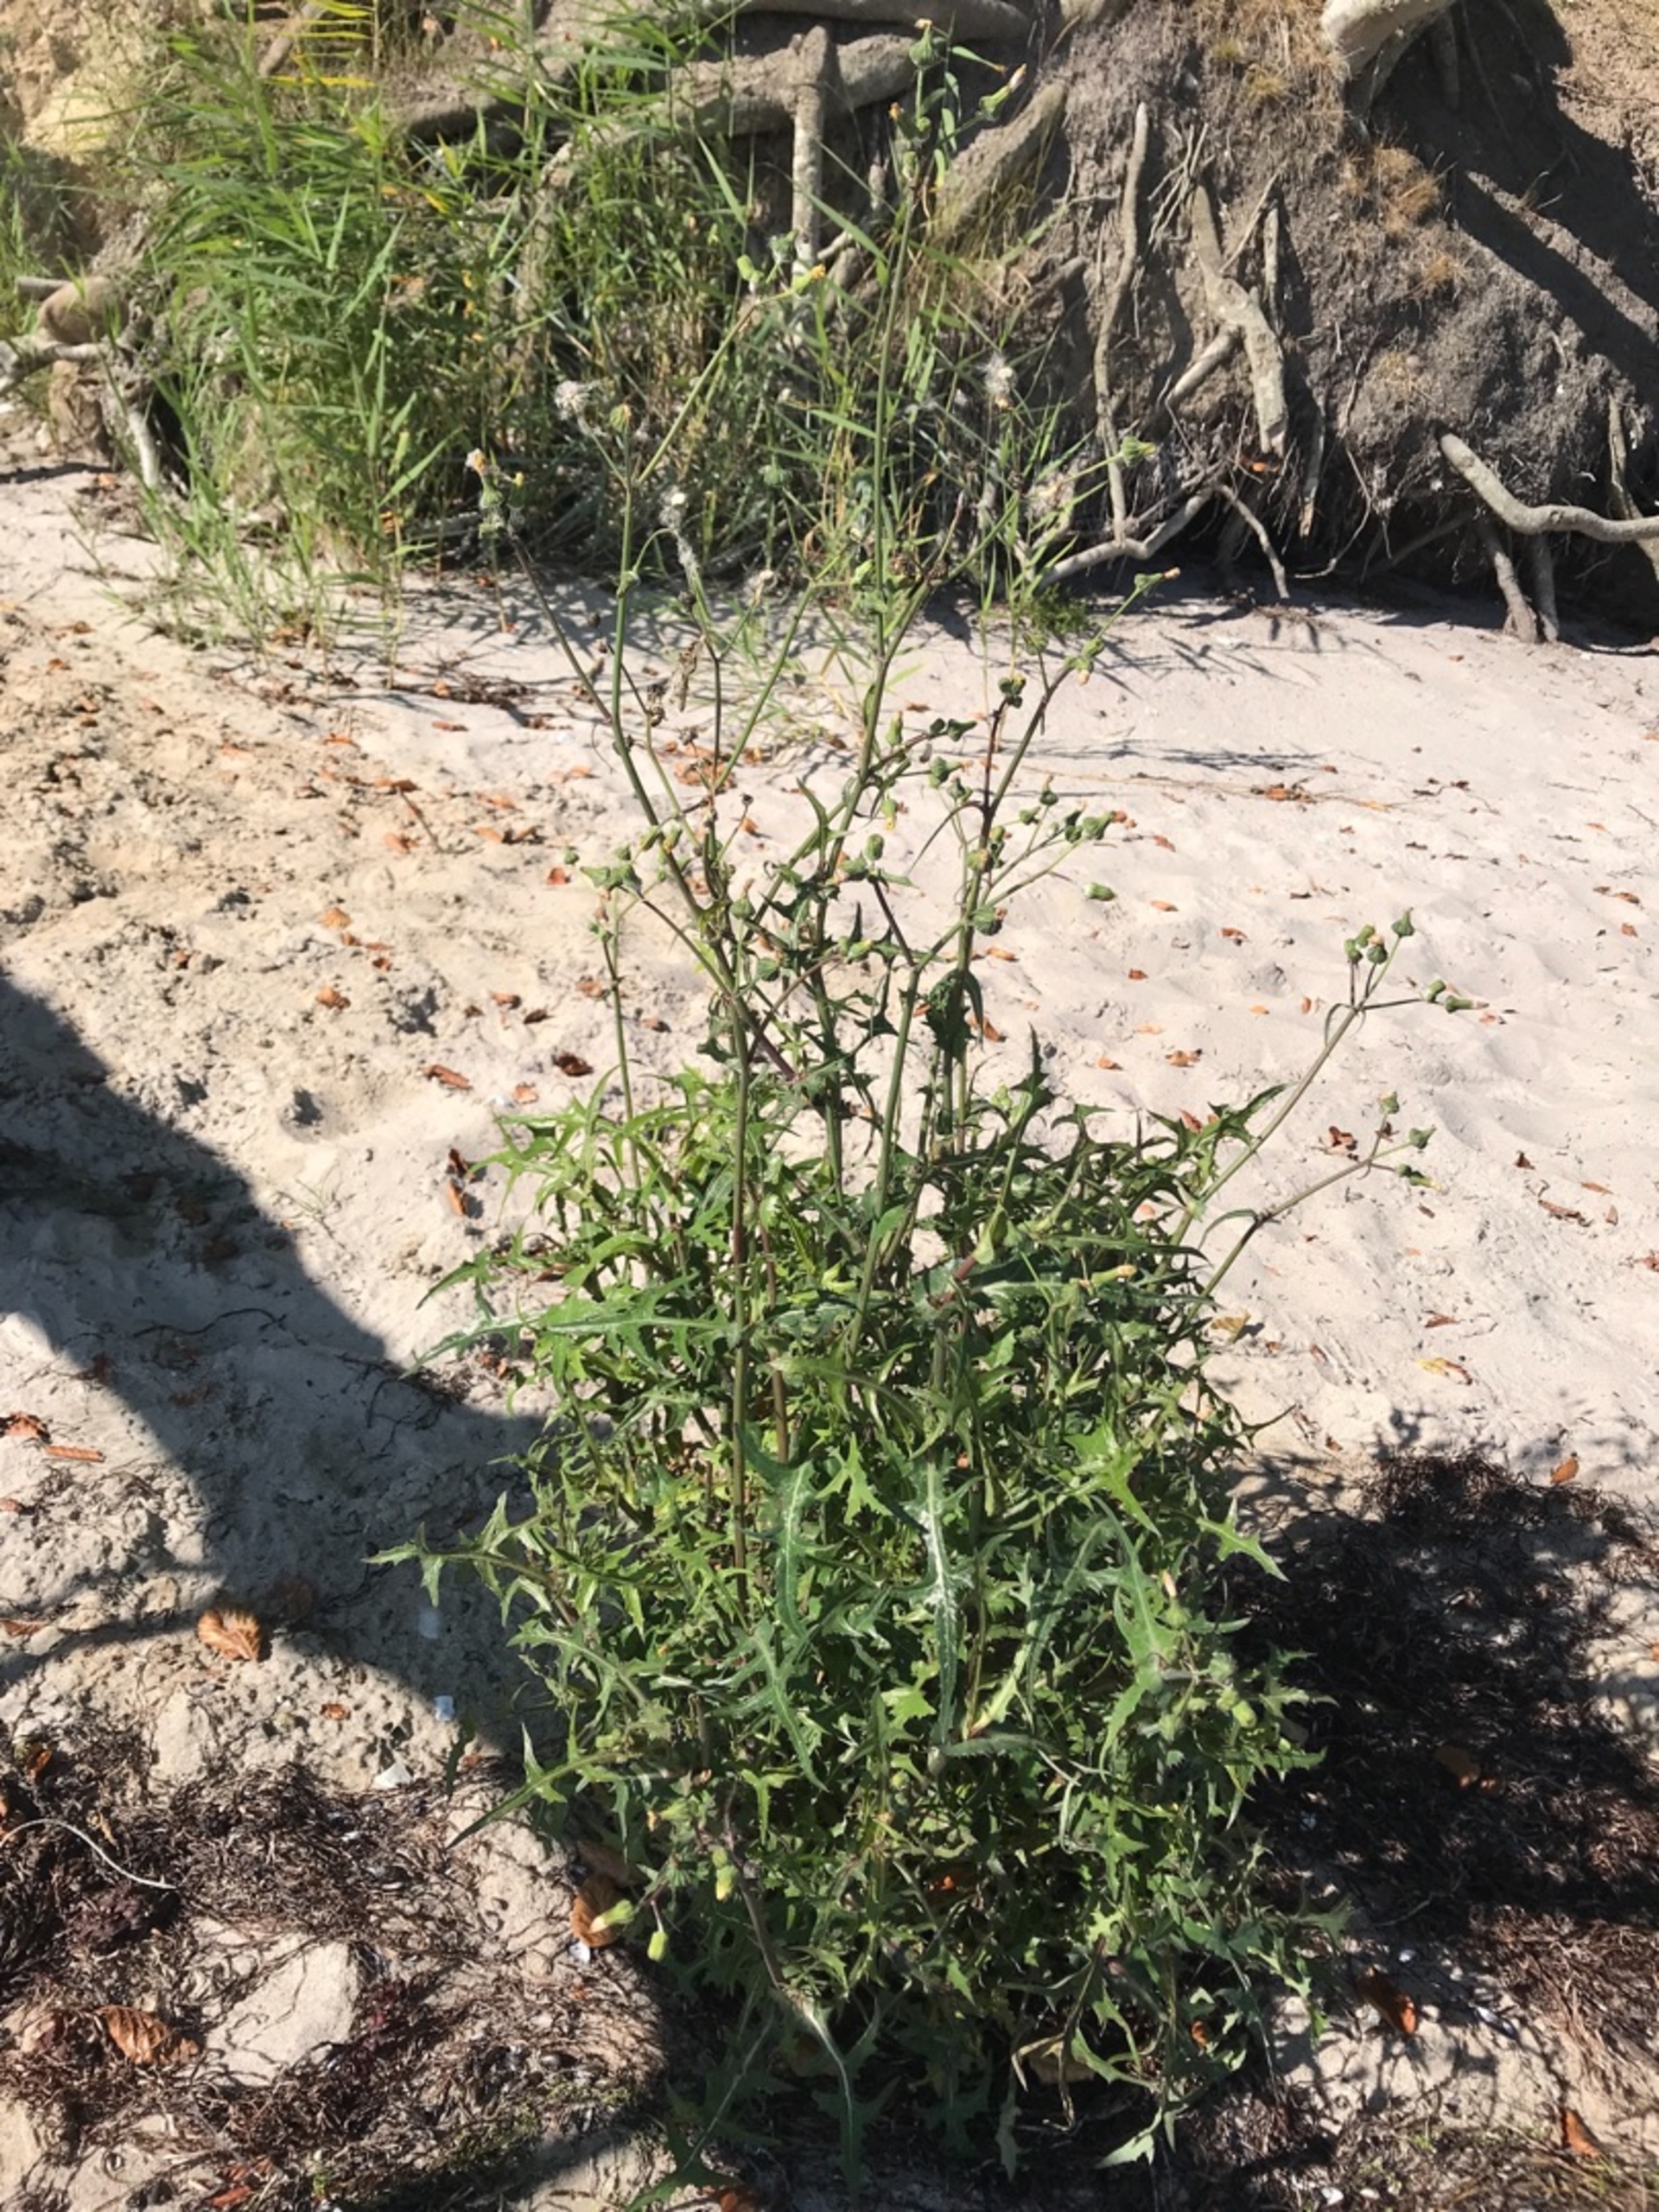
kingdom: Plantae
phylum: Tracheophyta
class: Magnoliopsida
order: Asterales
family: Asteraceae
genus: Sonchus
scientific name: Sonchus oleraceus
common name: Almindelig svinemælk
